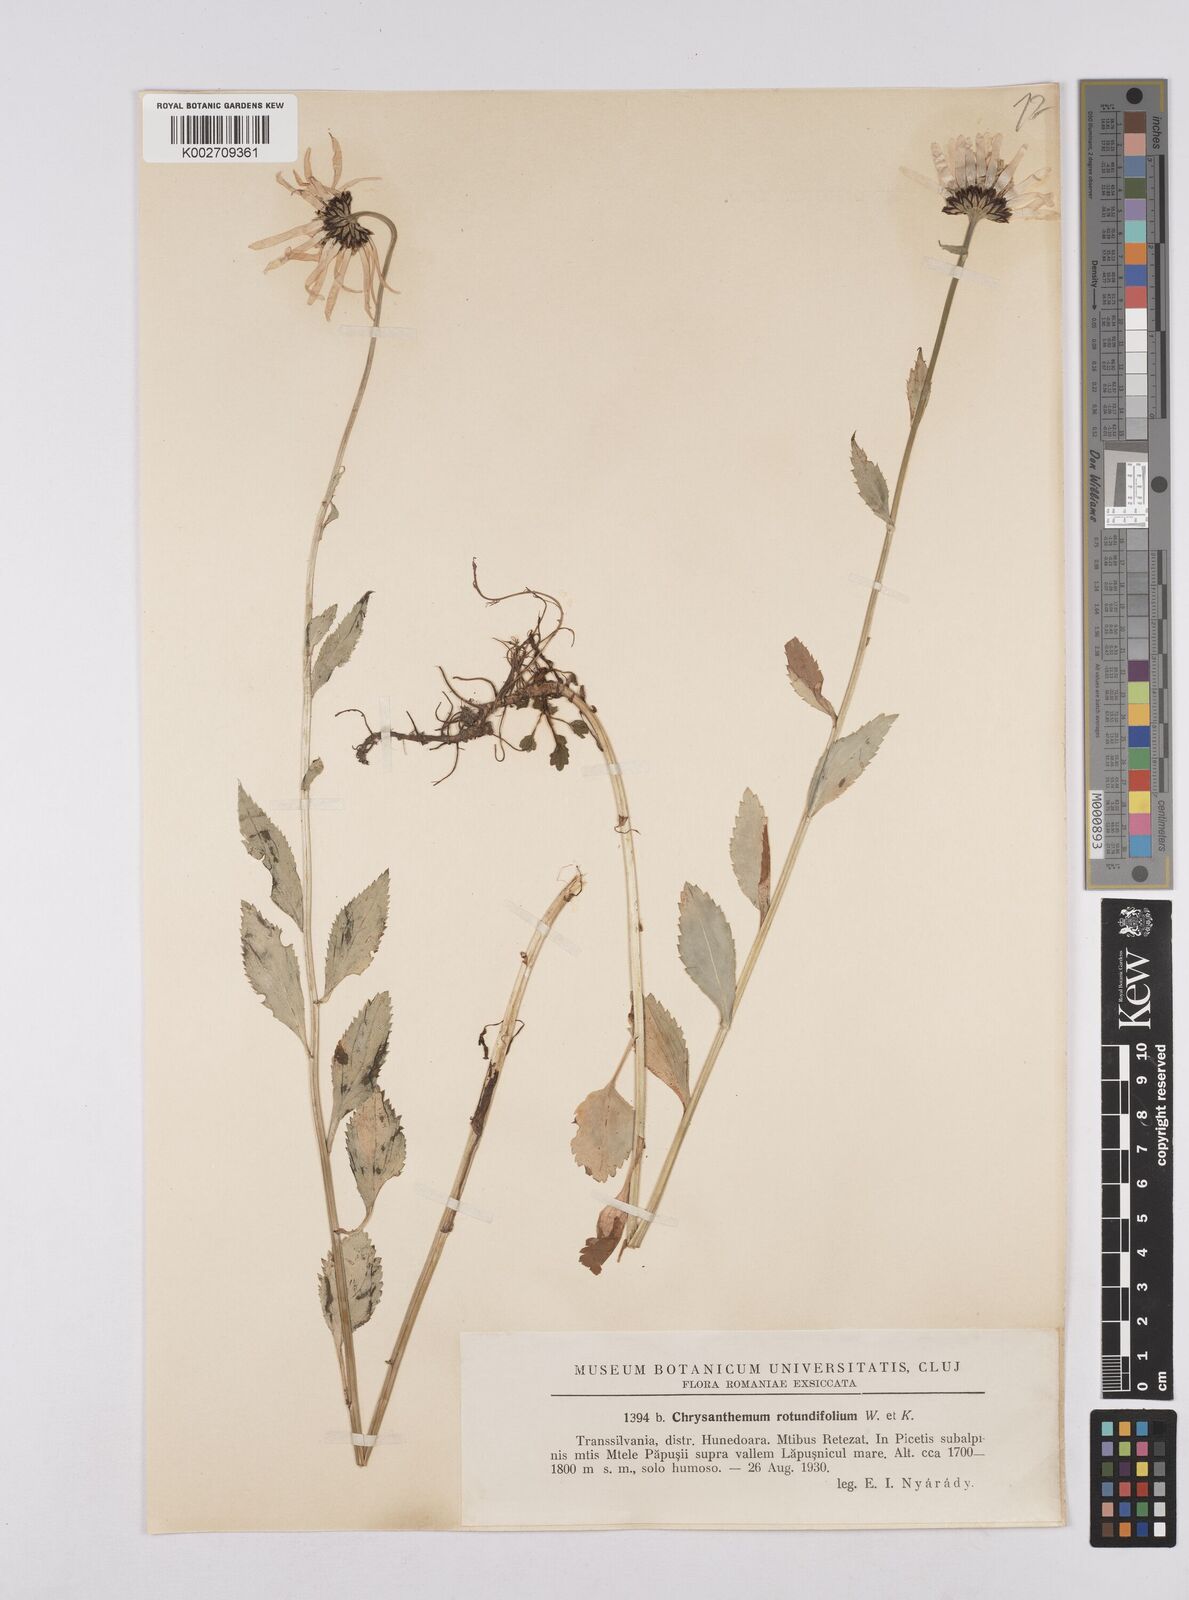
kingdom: Plantae
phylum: Tracheophyta
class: Magnoliopsida
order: Asterales
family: Asteraceae
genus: Leucanthemum
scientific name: Leucanthemum rotundifolium
